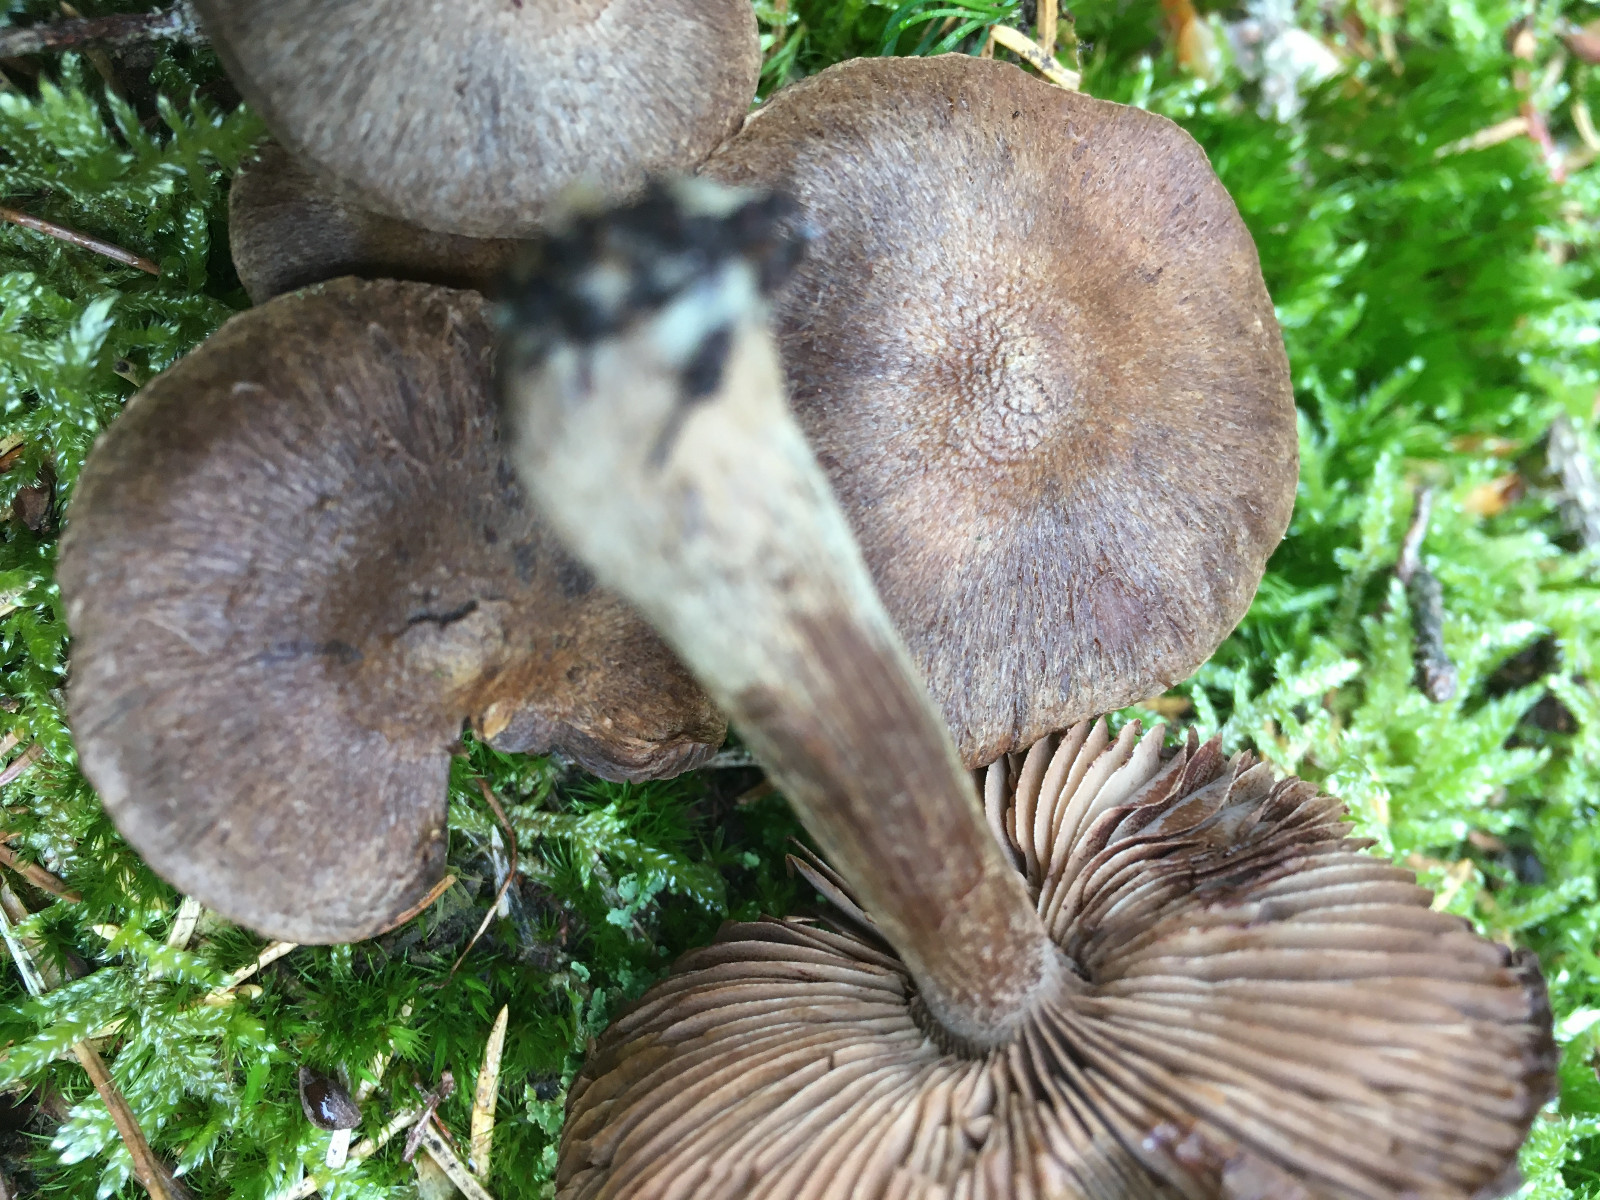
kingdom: Fungi
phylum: Basidiomycota
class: Agaricomycetes
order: Agaricales
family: Inocybaceae
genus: Inocybe
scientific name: Inocybe
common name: trævlhat
